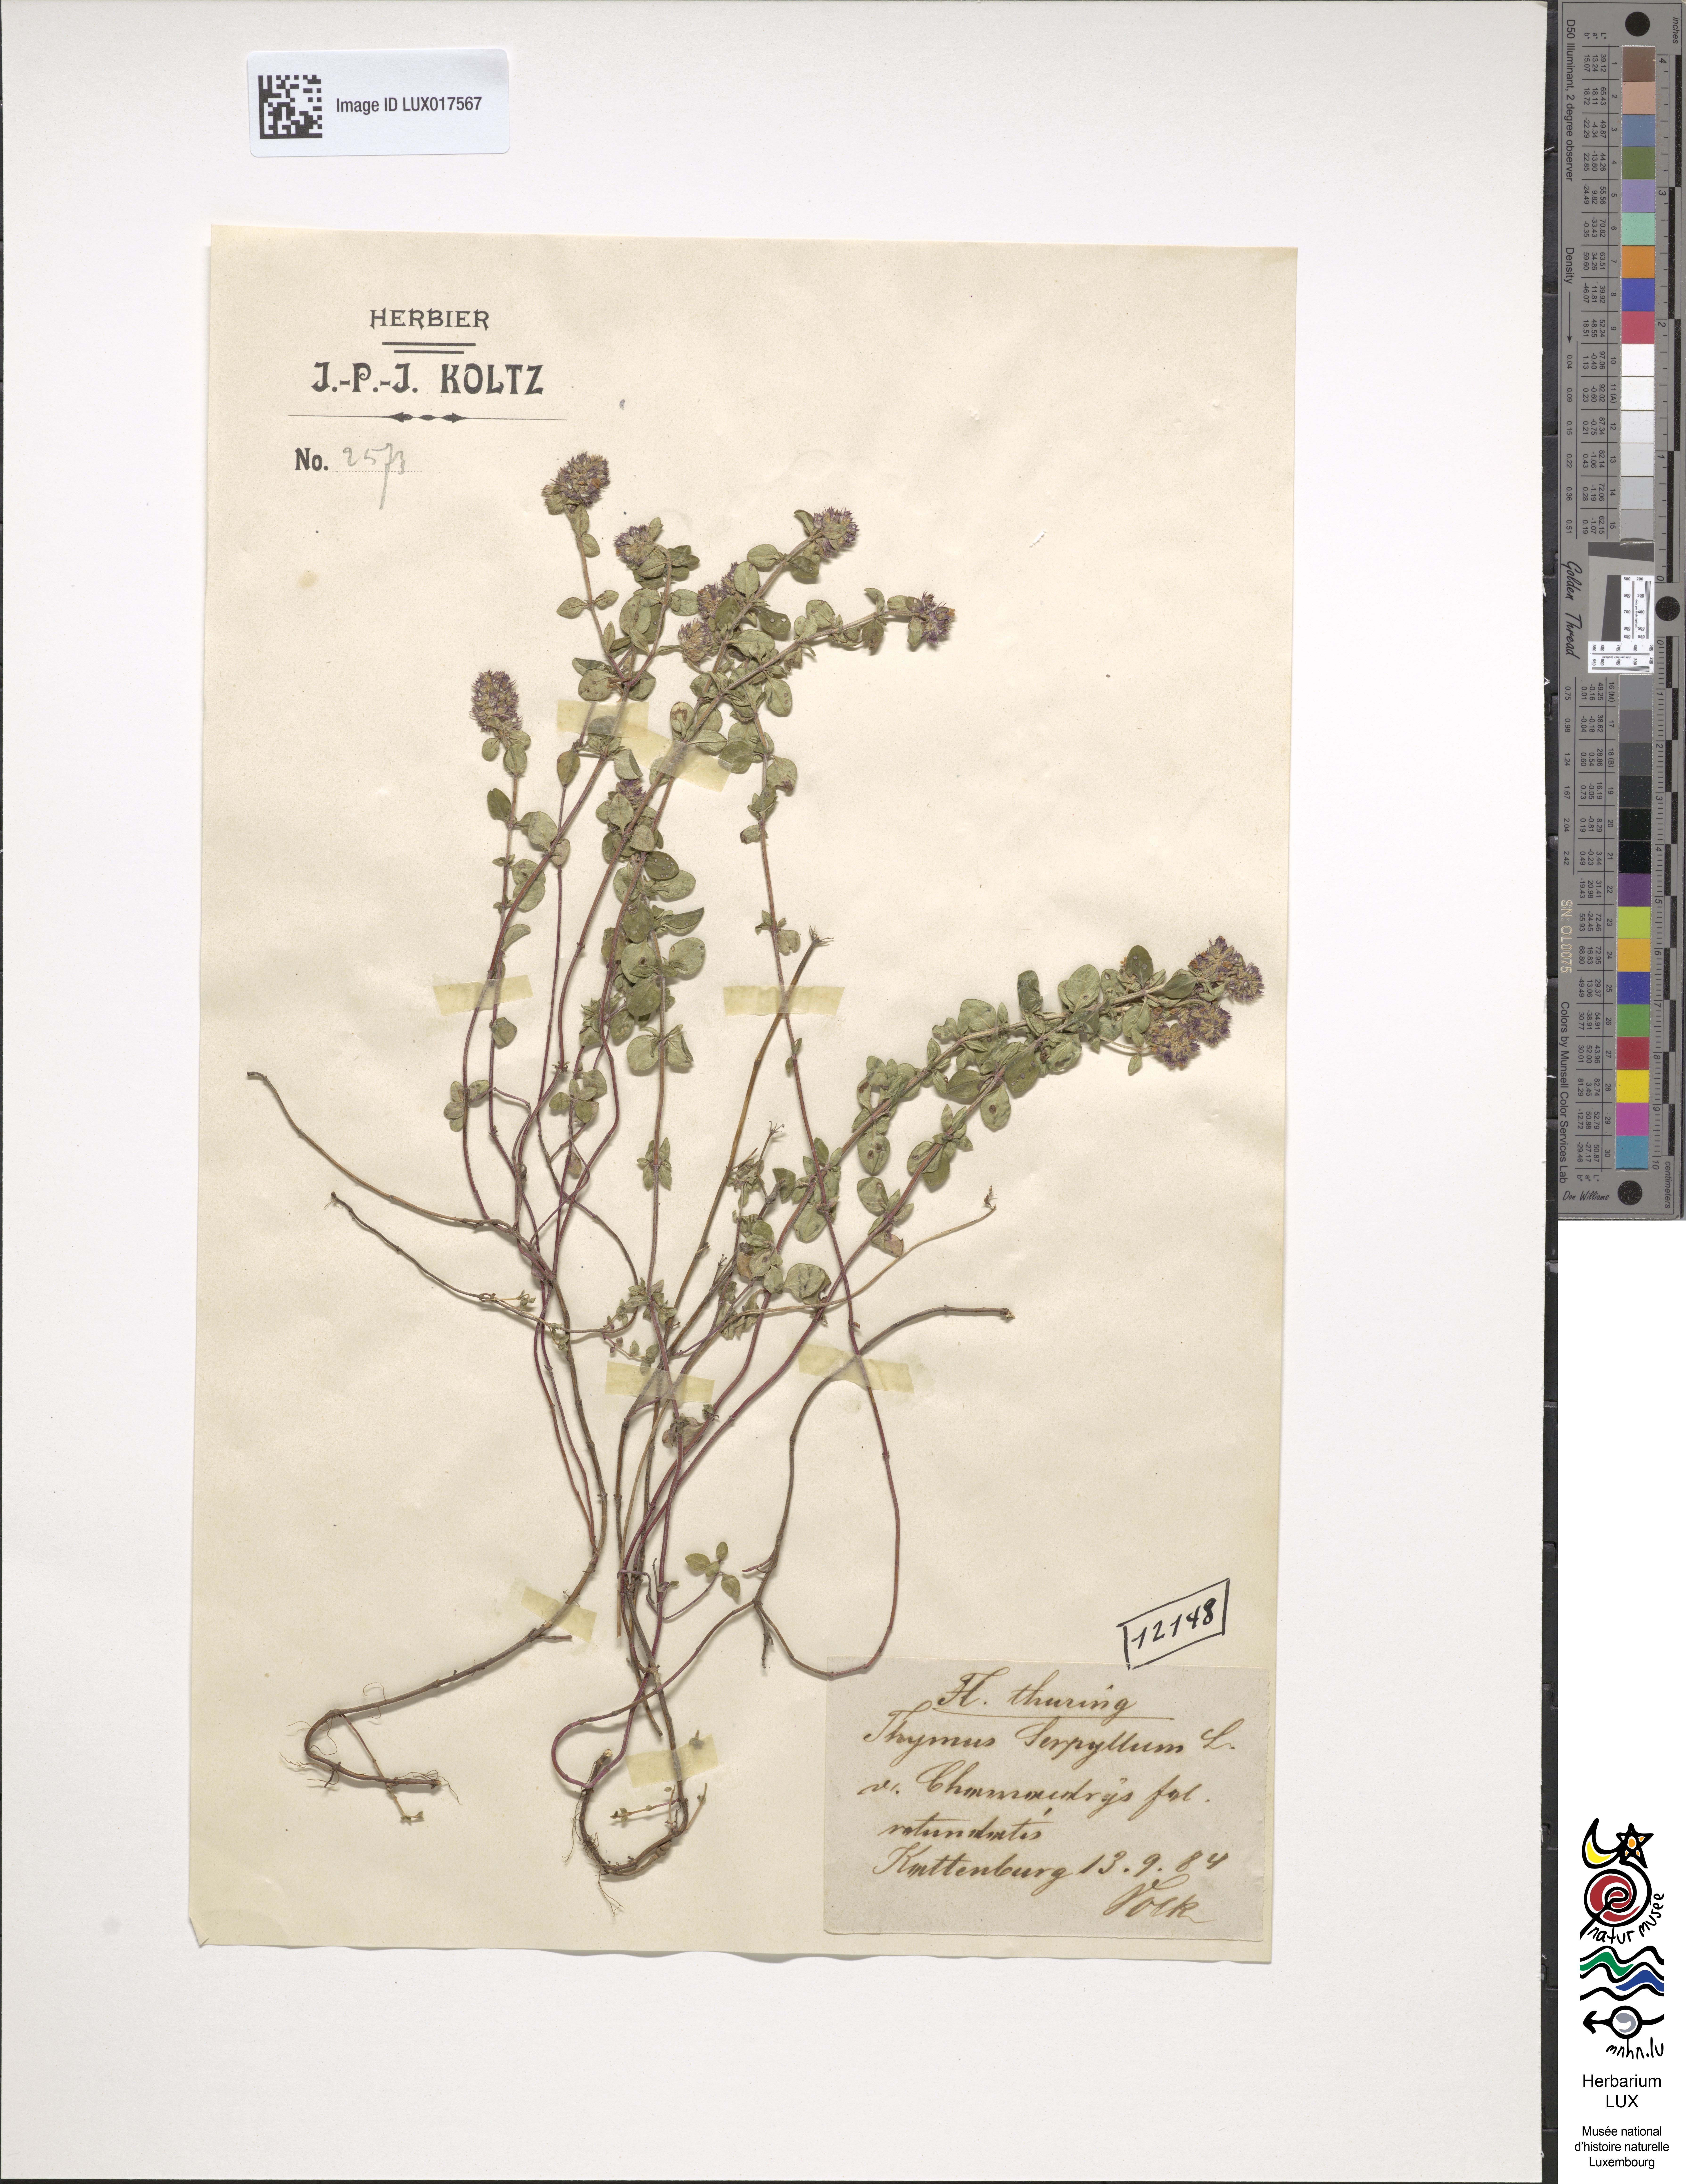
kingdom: Plantae
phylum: Tracheophyta
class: Magnoliopsida
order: Lamiales
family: Lamiaceae
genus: Thymus
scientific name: Thymus pulegioides
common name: Large thyme
